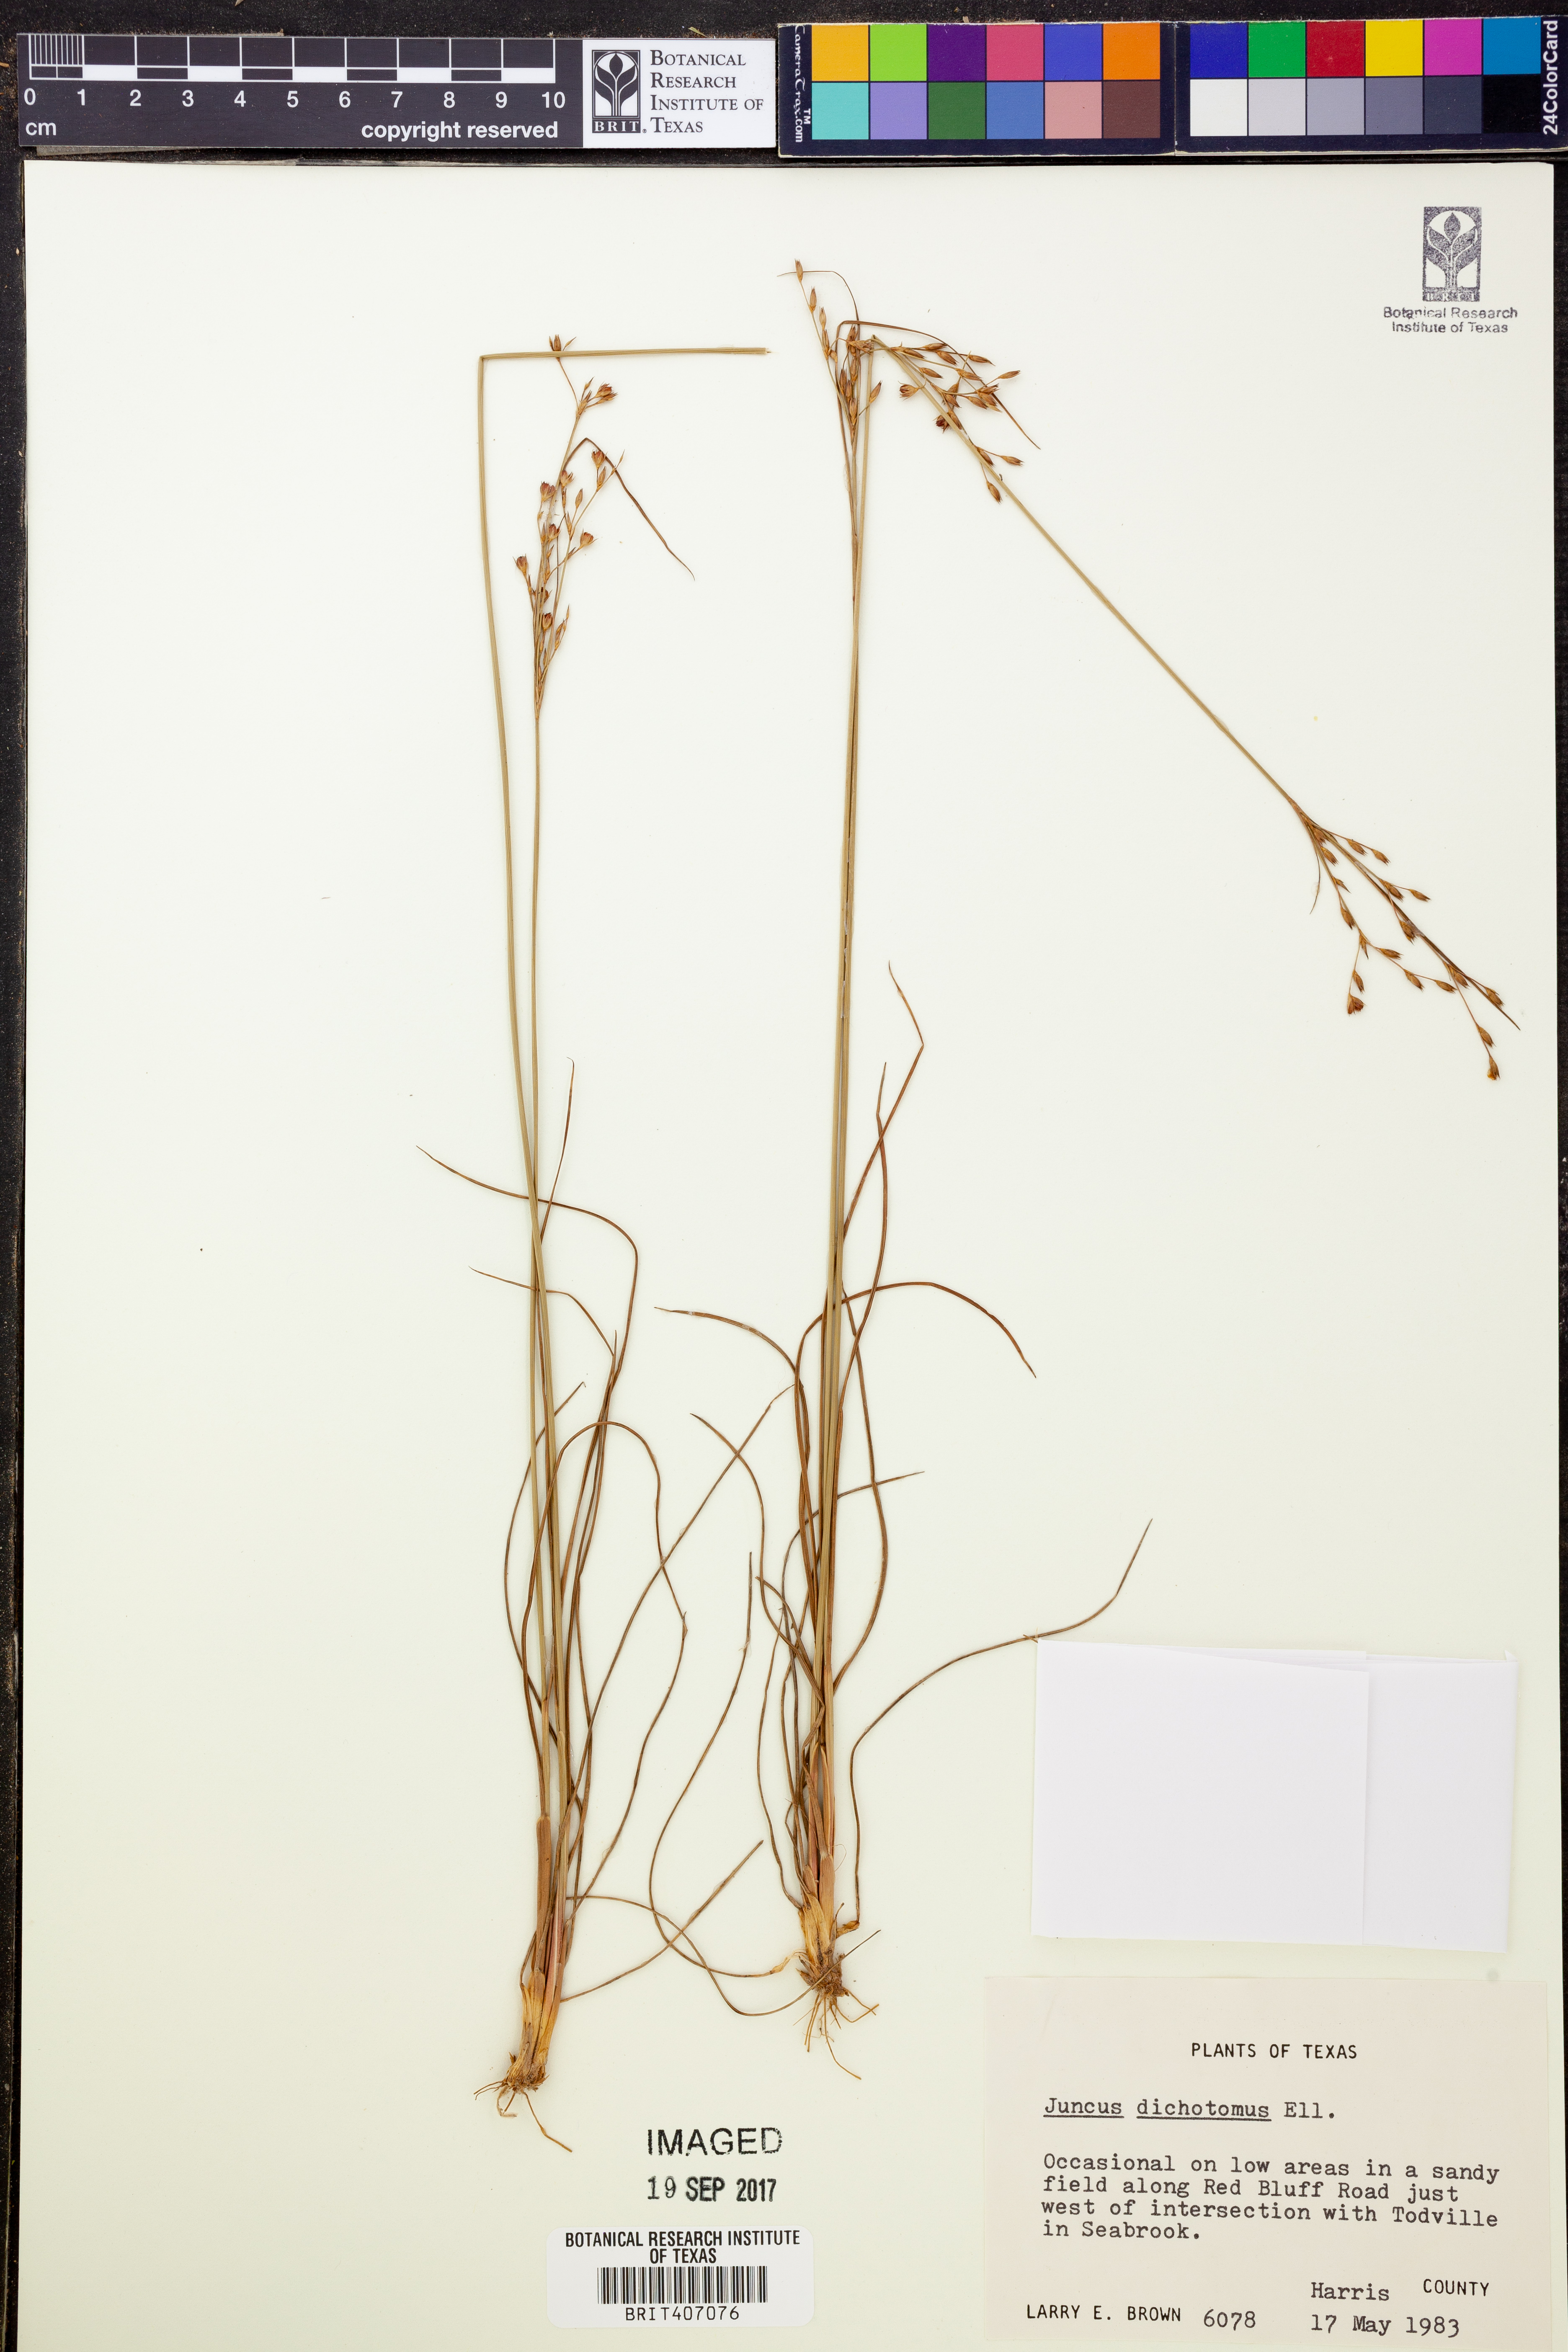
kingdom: Plantae
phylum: Tracheophyta
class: Liliopsida
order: Poales
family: Juncaceae
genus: Juncus
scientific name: Juncus dichotomus
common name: Forked rush
